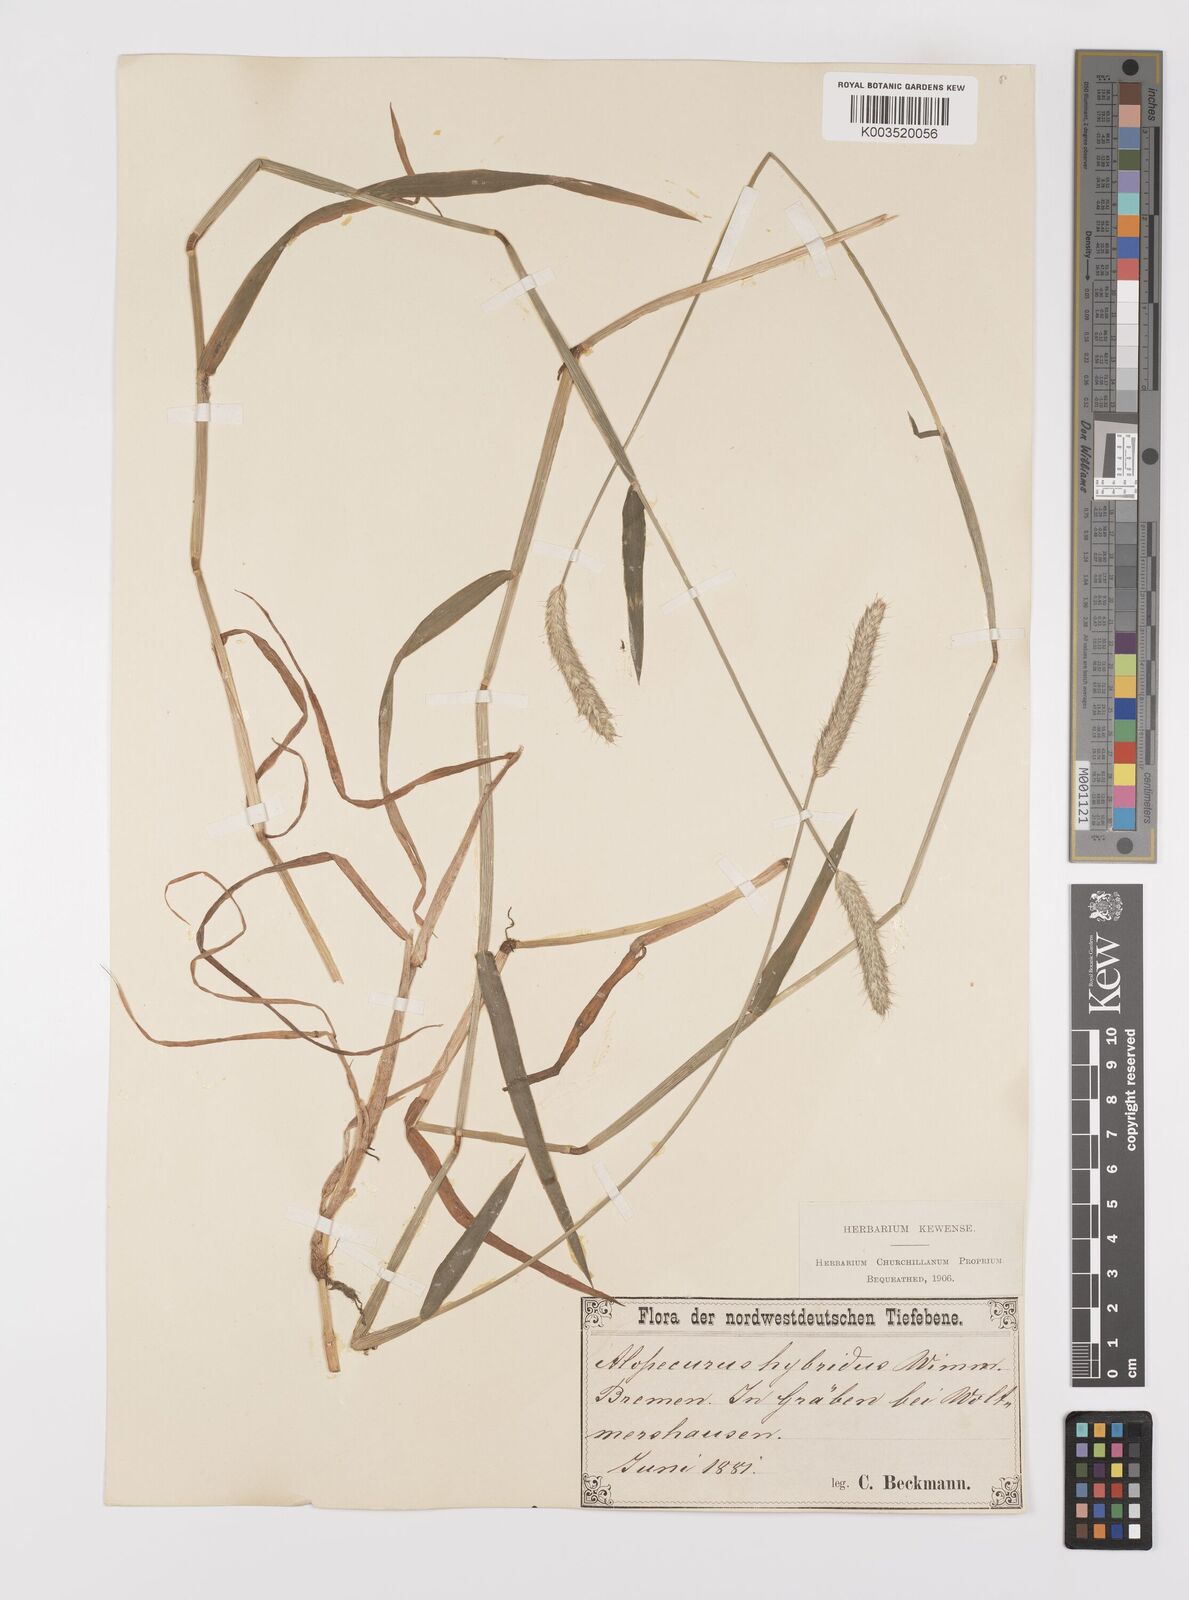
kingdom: Plantae
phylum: Tracheophyta
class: Liliopsida
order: Poales
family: Poaceae
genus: Alopecurus
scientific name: Alopecurus brachystylus
